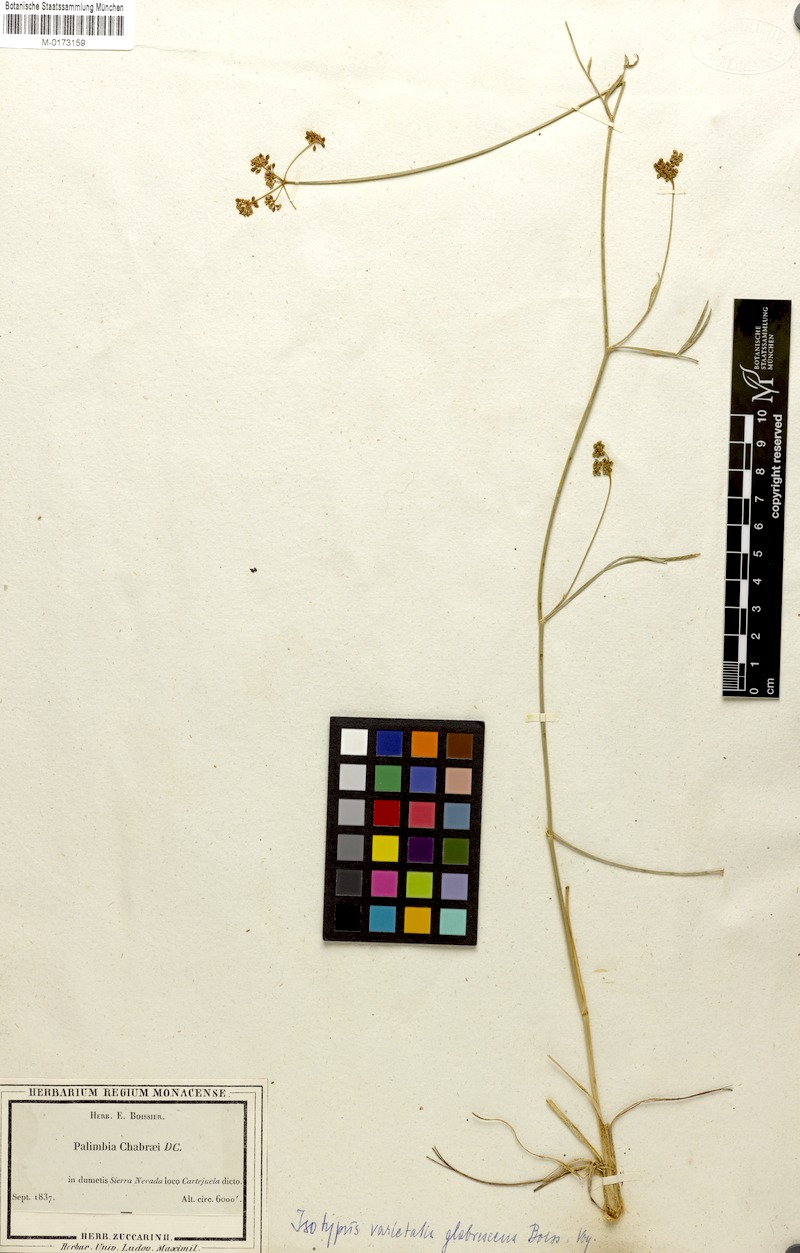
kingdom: Plantae
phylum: Tracheophyta
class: Magnoliopsida
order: Apiales
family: Apiaceae
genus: Dichoropetalum
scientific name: Dichoropetalum carvifolia
